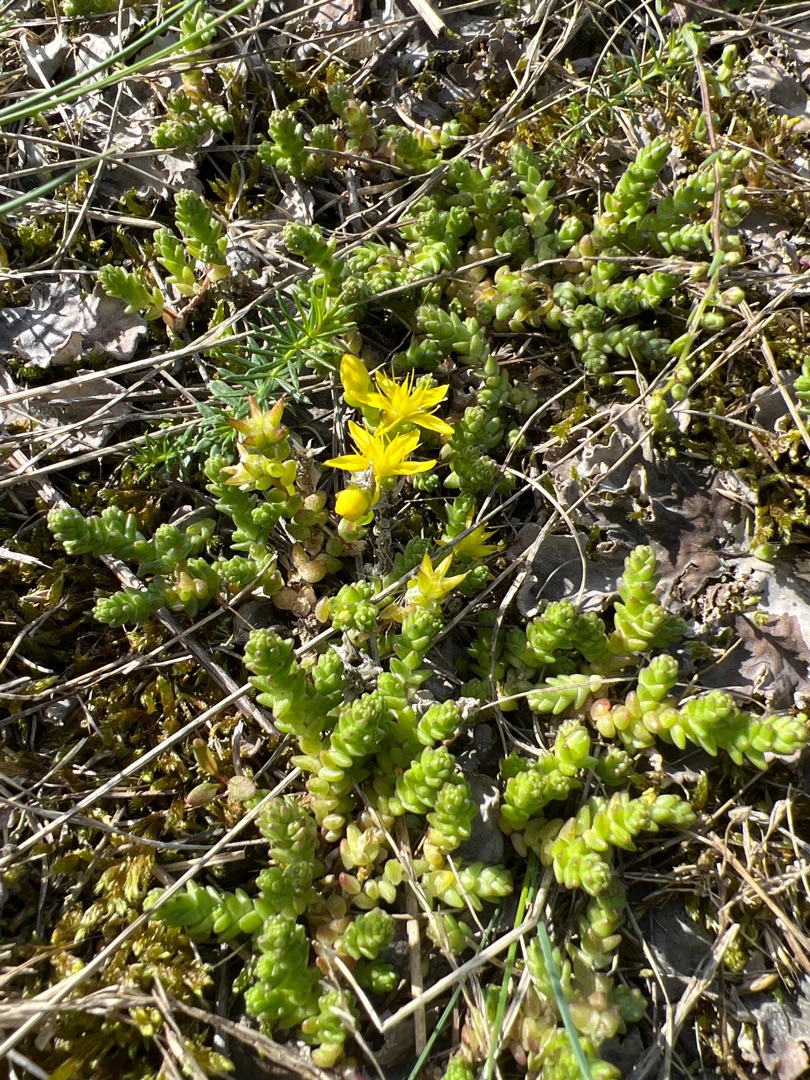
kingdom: Plantae
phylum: Tracheophyta
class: Magnoliopsida
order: Saxifragales
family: Crassulaceae
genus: Sedum
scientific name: Sedum acre
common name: Bidende stenurt
